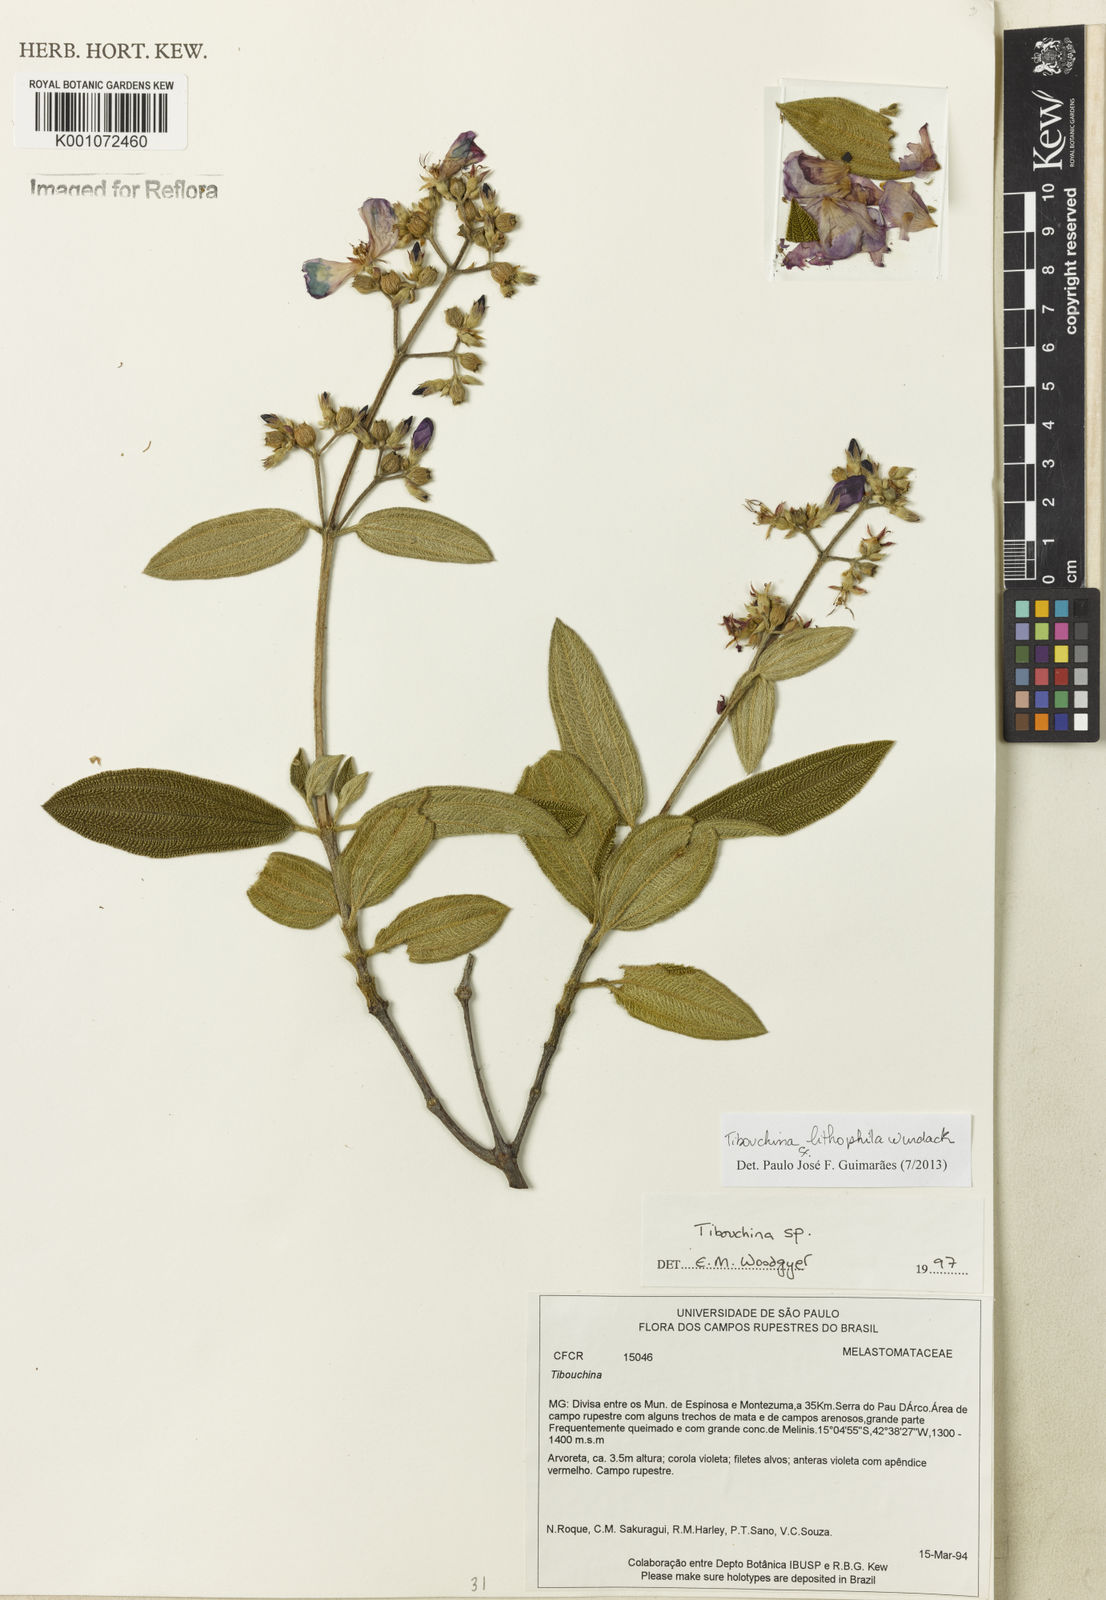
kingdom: Plantae
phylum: Tracheophyta
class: Magnoliopsida
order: Myrtales
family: Melastomataceae
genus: Tibouchina
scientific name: Tibouchina lithophila
